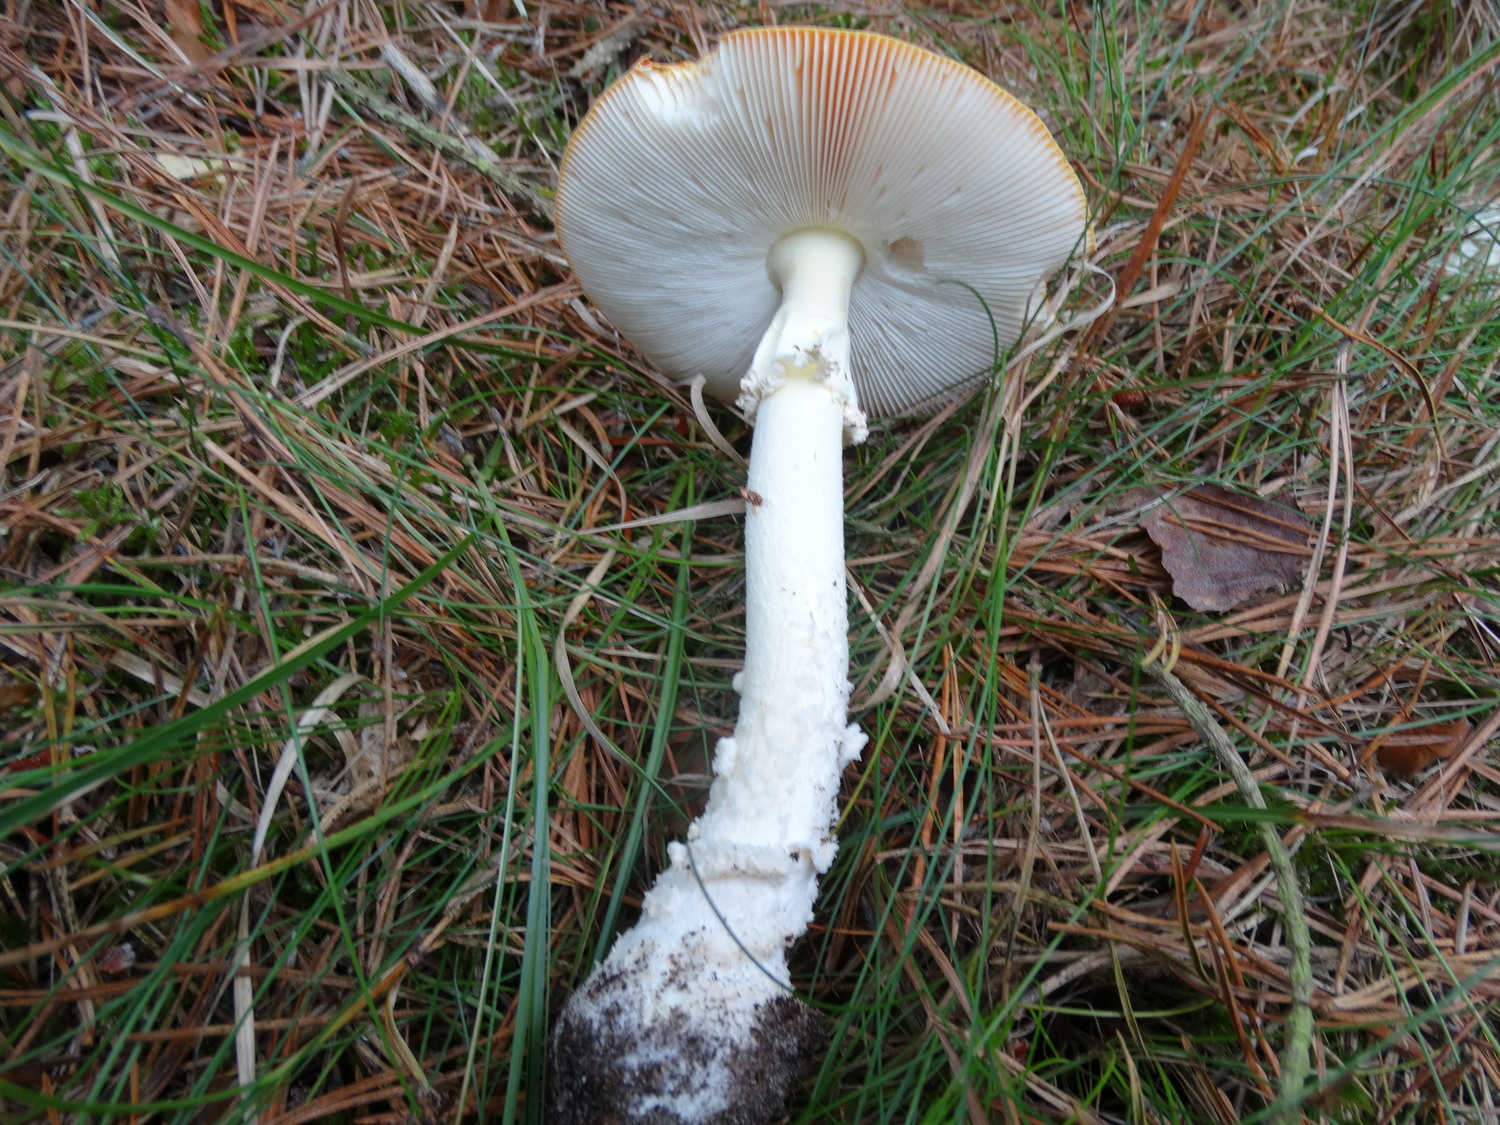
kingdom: Fungi
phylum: Basidiomycota
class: Agaricomycetes
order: Agaricales
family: Amanitaceae
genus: Amanita
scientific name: Amanita muscaria
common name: rød fluesvamp
